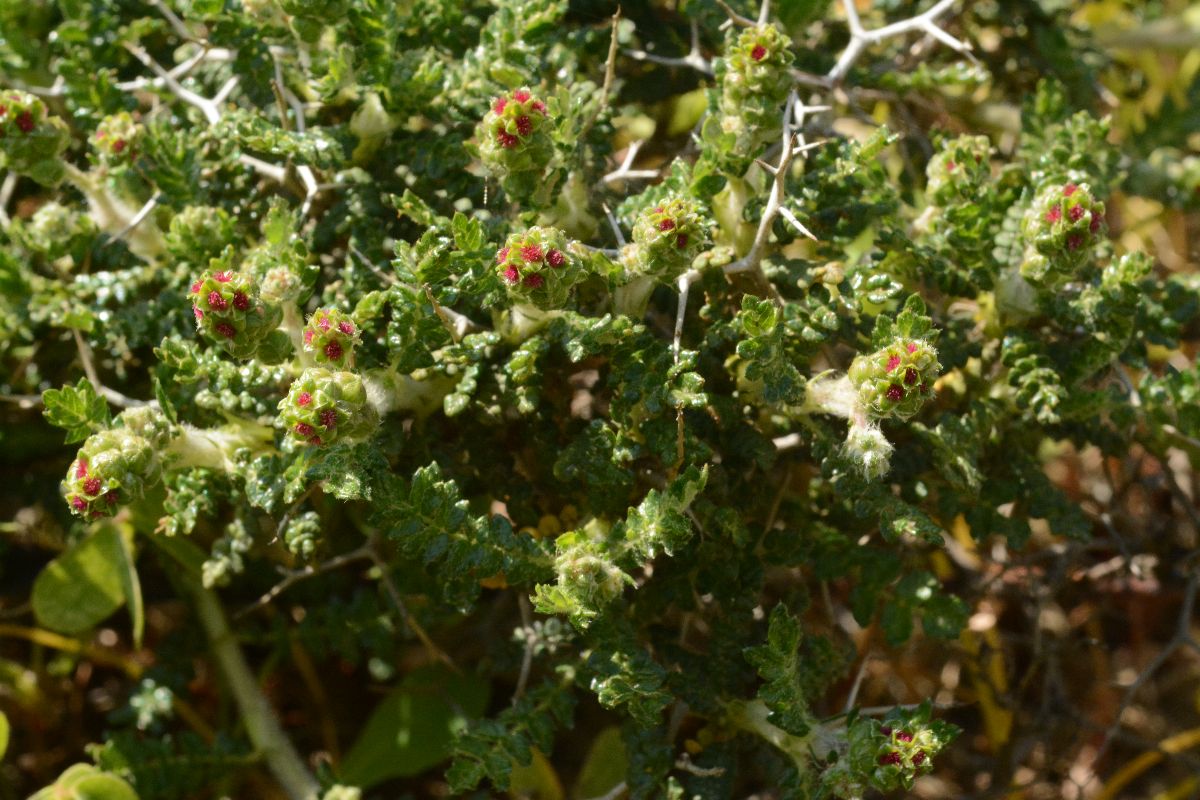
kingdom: Plantae
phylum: Tracheophyta
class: Magnoliopsida
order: Rosales
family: Rosaceae
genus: Sarcopoterium
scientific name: Sarcopoterium spinosum
